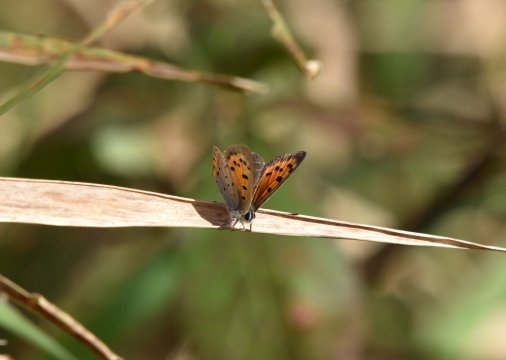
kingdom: Animalia
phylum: Arthropoda
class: Insecta
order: Lepidoptera
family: Lycaenidae
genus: Lycaena
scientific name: Lycaena phlaeas
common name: American Copper
